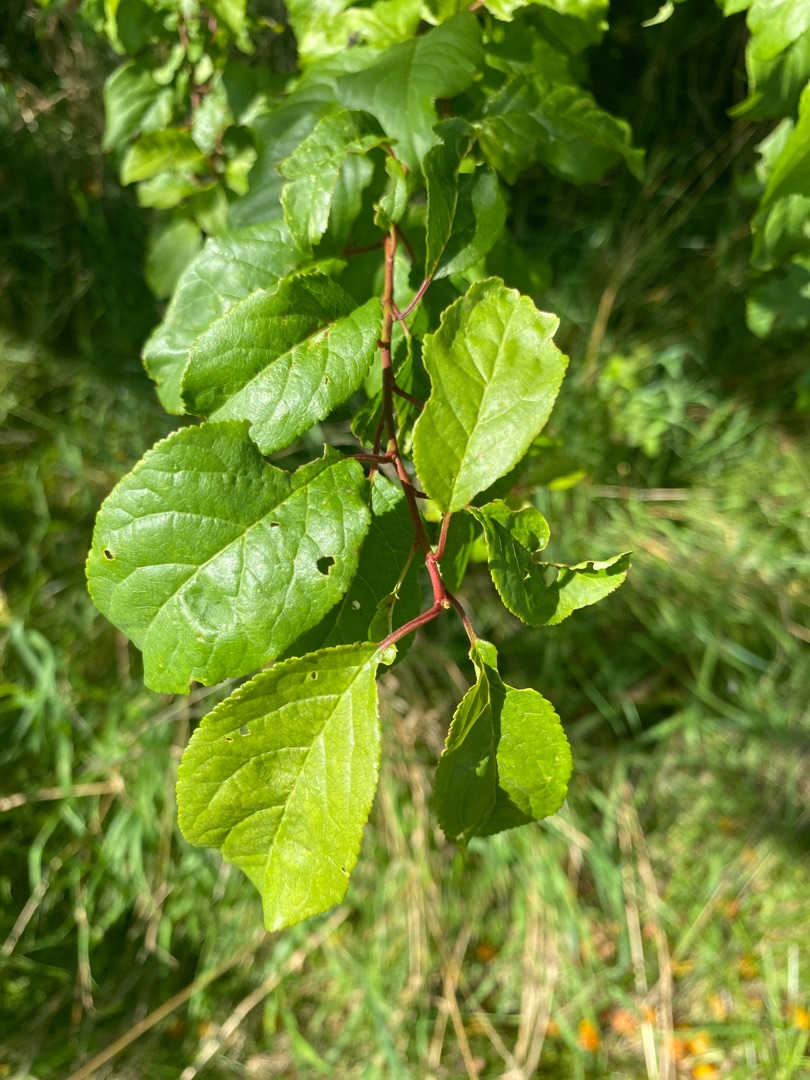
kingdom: Plantae
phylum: Tracheophyta
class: Magnoliopsida
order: Rosales
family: Rosaceae
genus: Prunus
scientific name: Prunus cerasifera
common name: Mirabel
